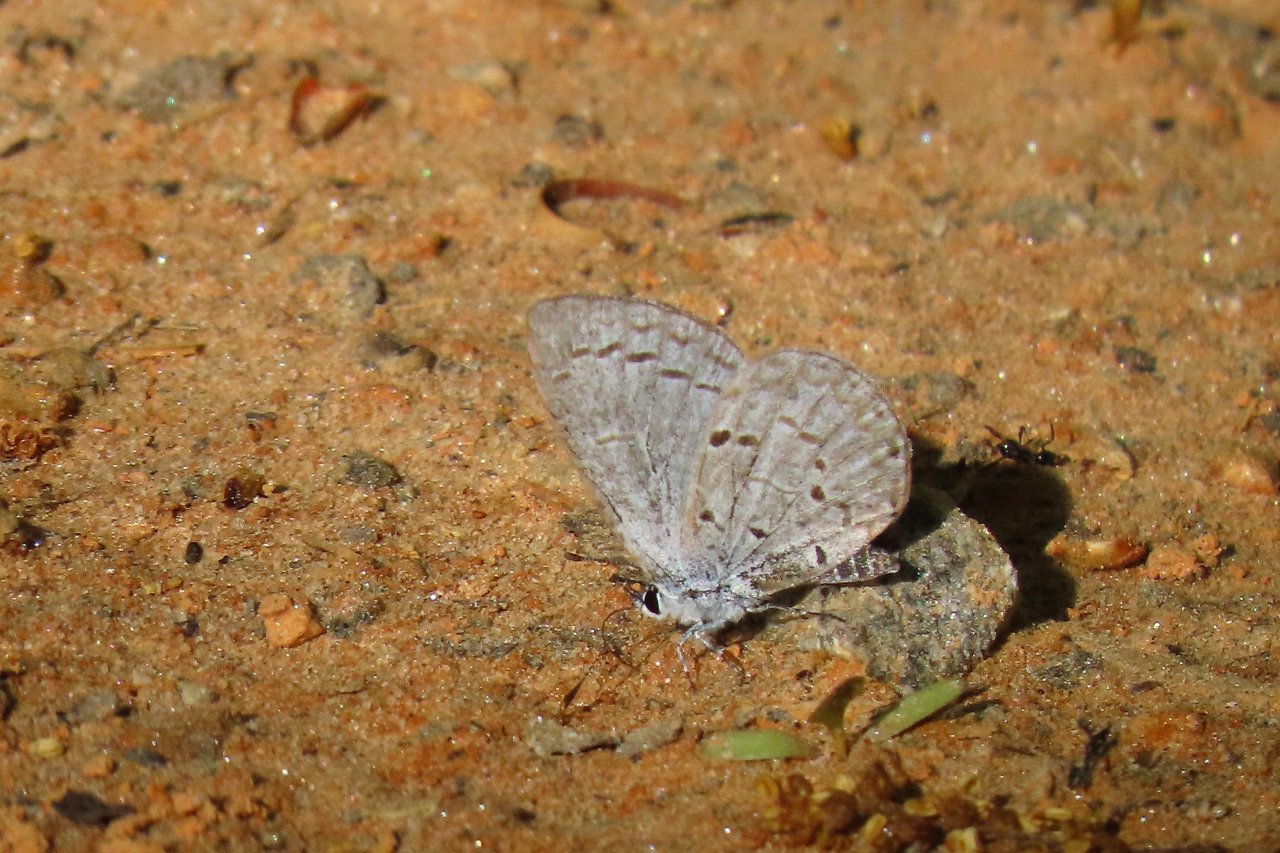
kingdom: Animalia
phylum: Arthropoda
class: Insecta
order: Lepidoptera
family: Lycaenidae
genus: Celastrina
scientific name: Celastrina
